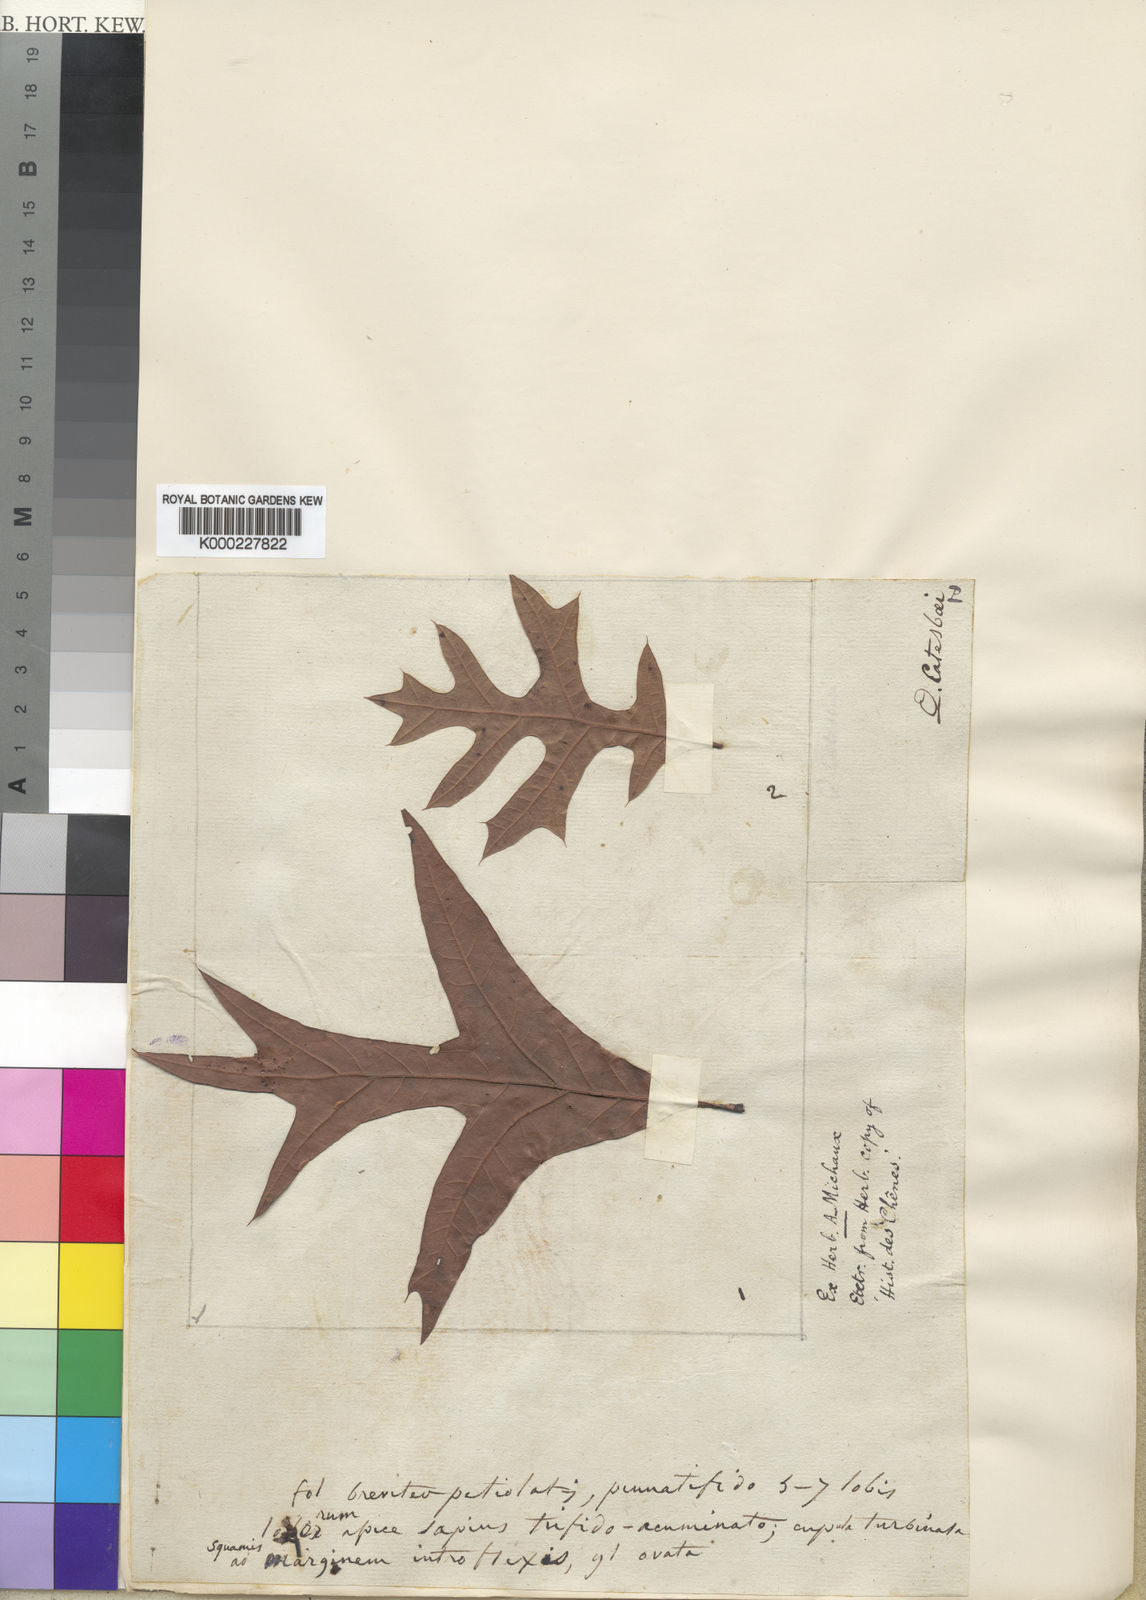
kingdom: Plantae
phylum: Tracheophyta
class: Magnoliopsida
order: Fagales
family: Fagaceae
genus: Quercus
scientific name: Quercus laevis
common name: Turkey oak
